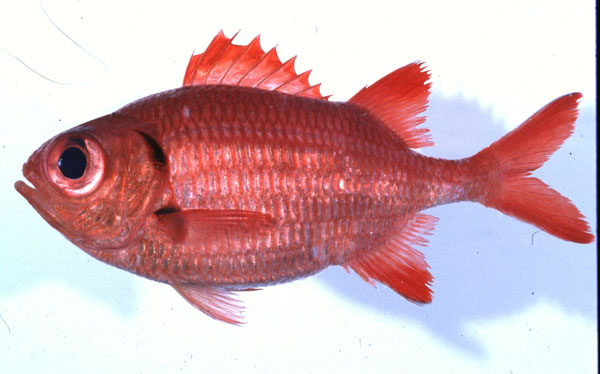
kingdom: Animalia
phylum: Chordata
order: Beryciformes
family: Holocentridae
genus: Myripristis
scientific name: Myripristis botche
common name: Blacktip soldierfish
